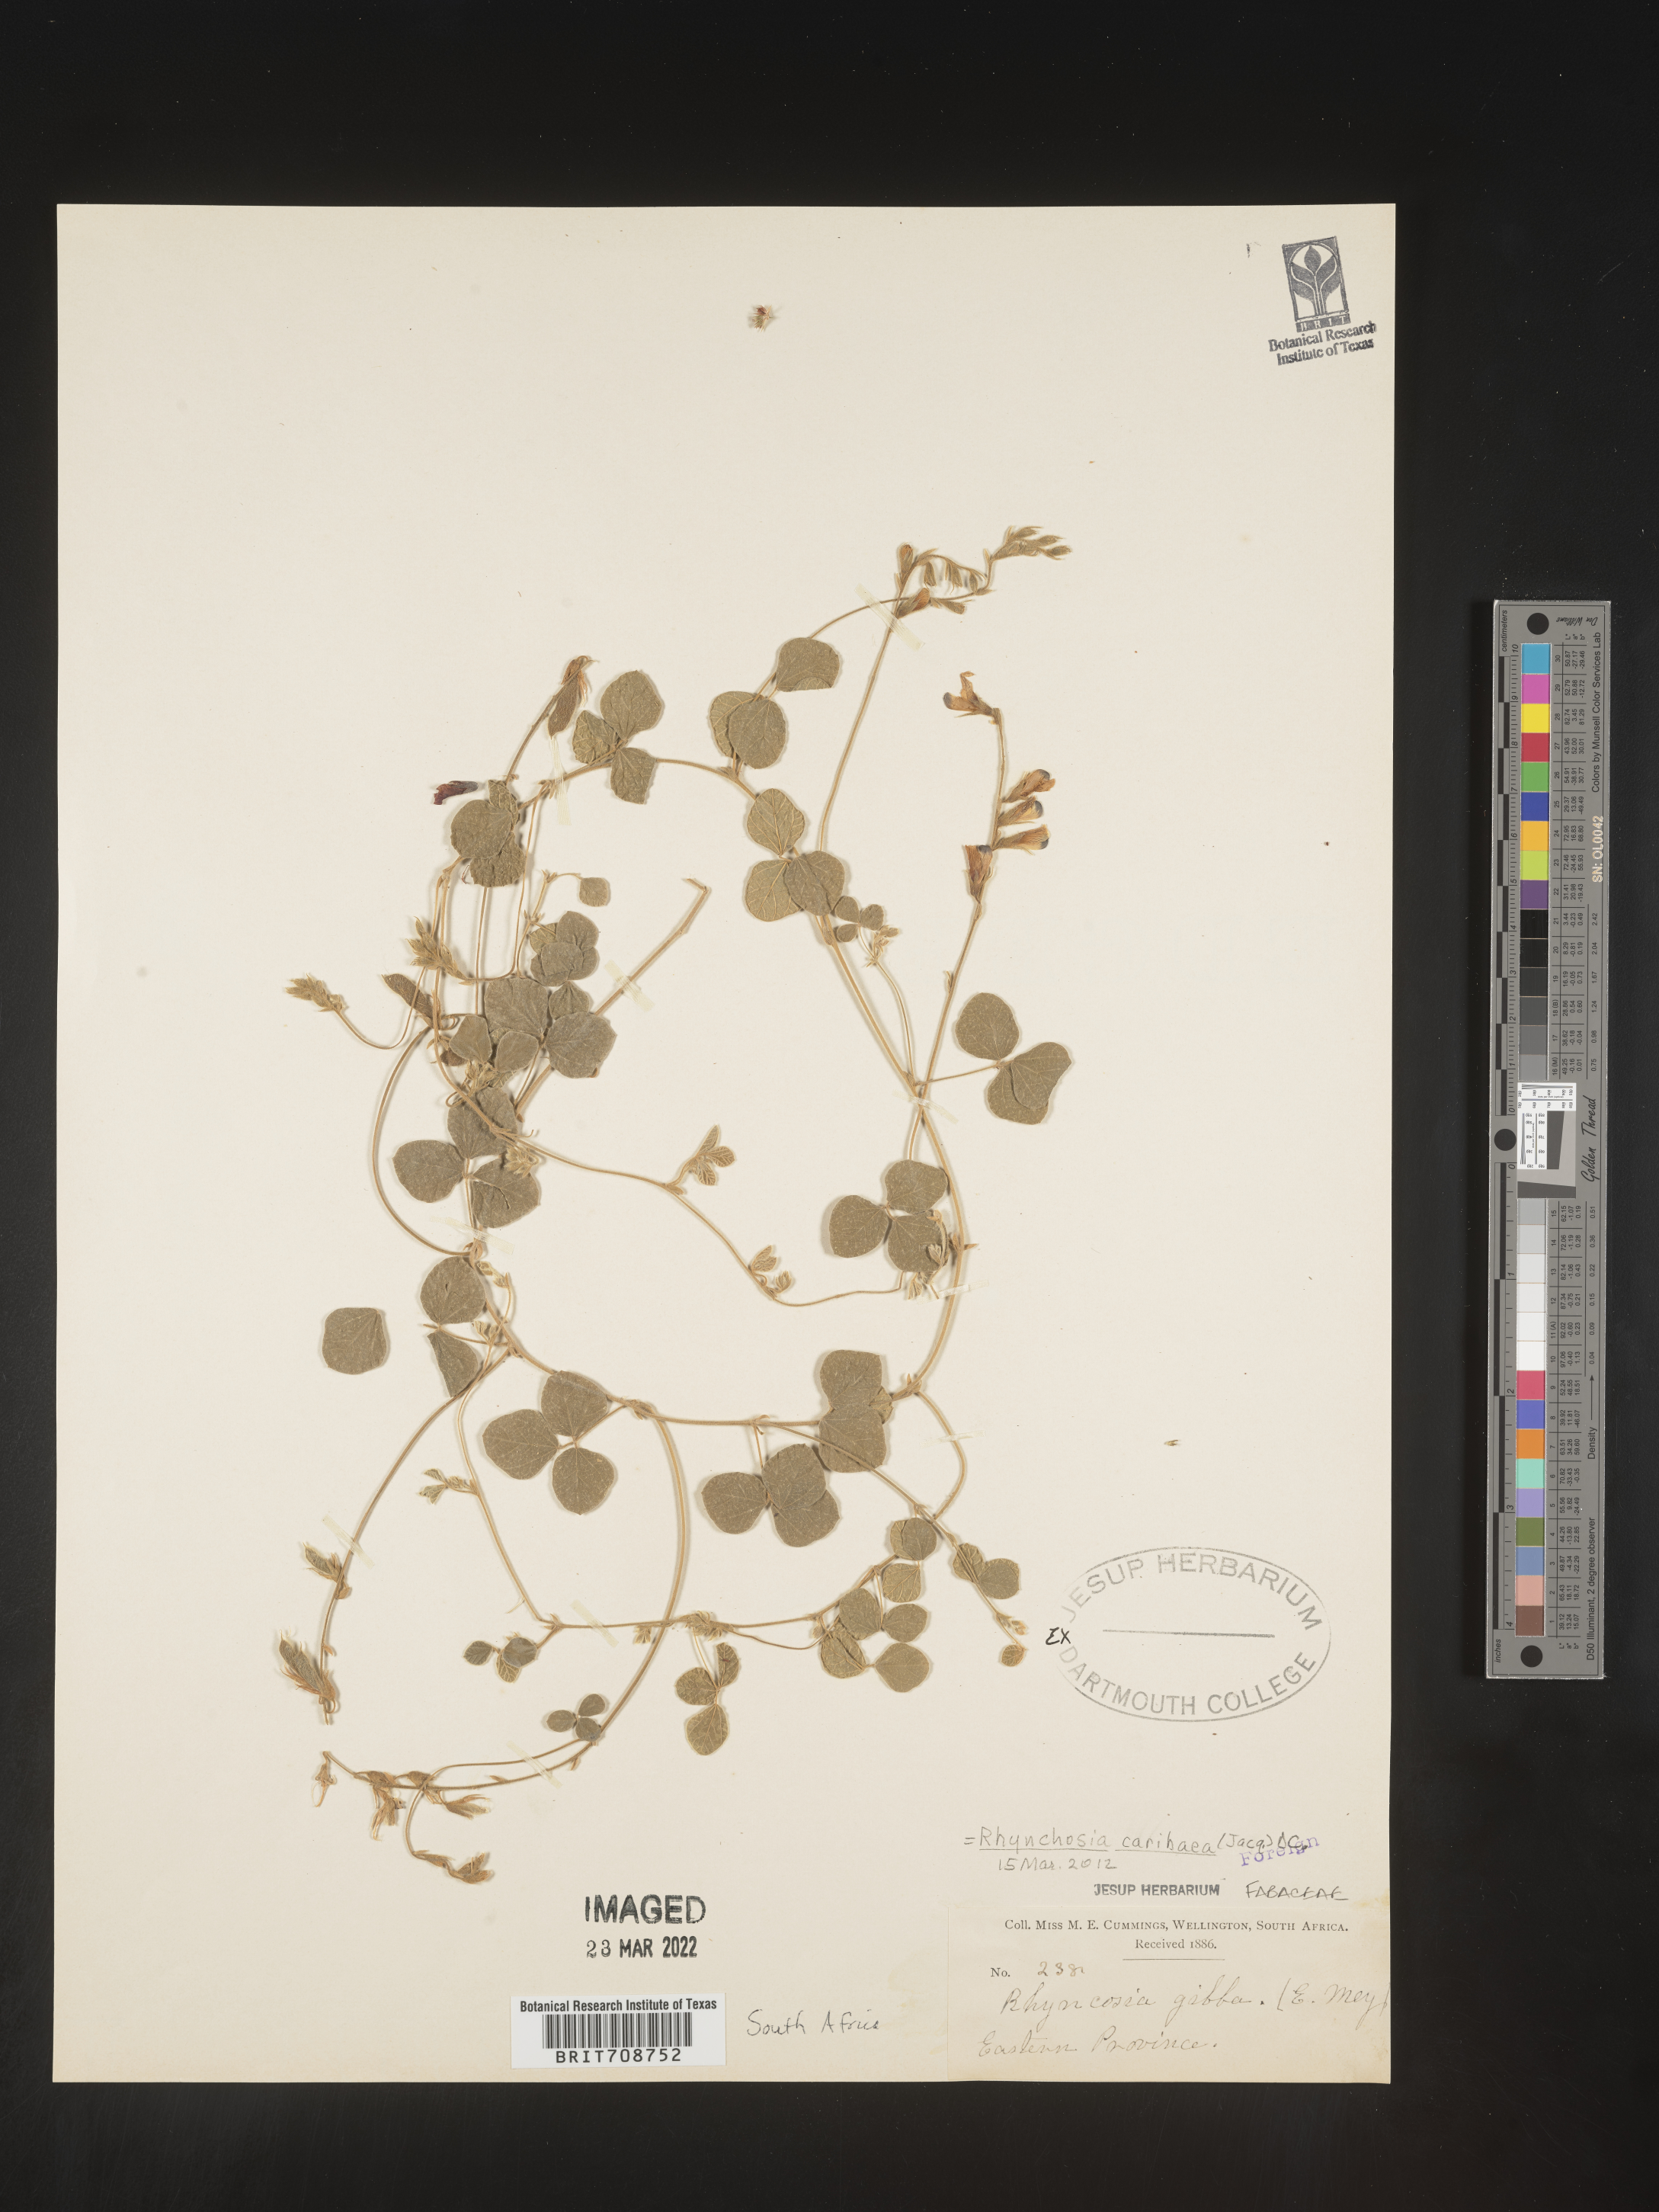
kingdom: Plantae
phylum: Tracheophyta
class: Magnoliopsida
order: Fabales
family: Fabaceae
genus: Rhynchosia
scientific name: Rhynchosia
